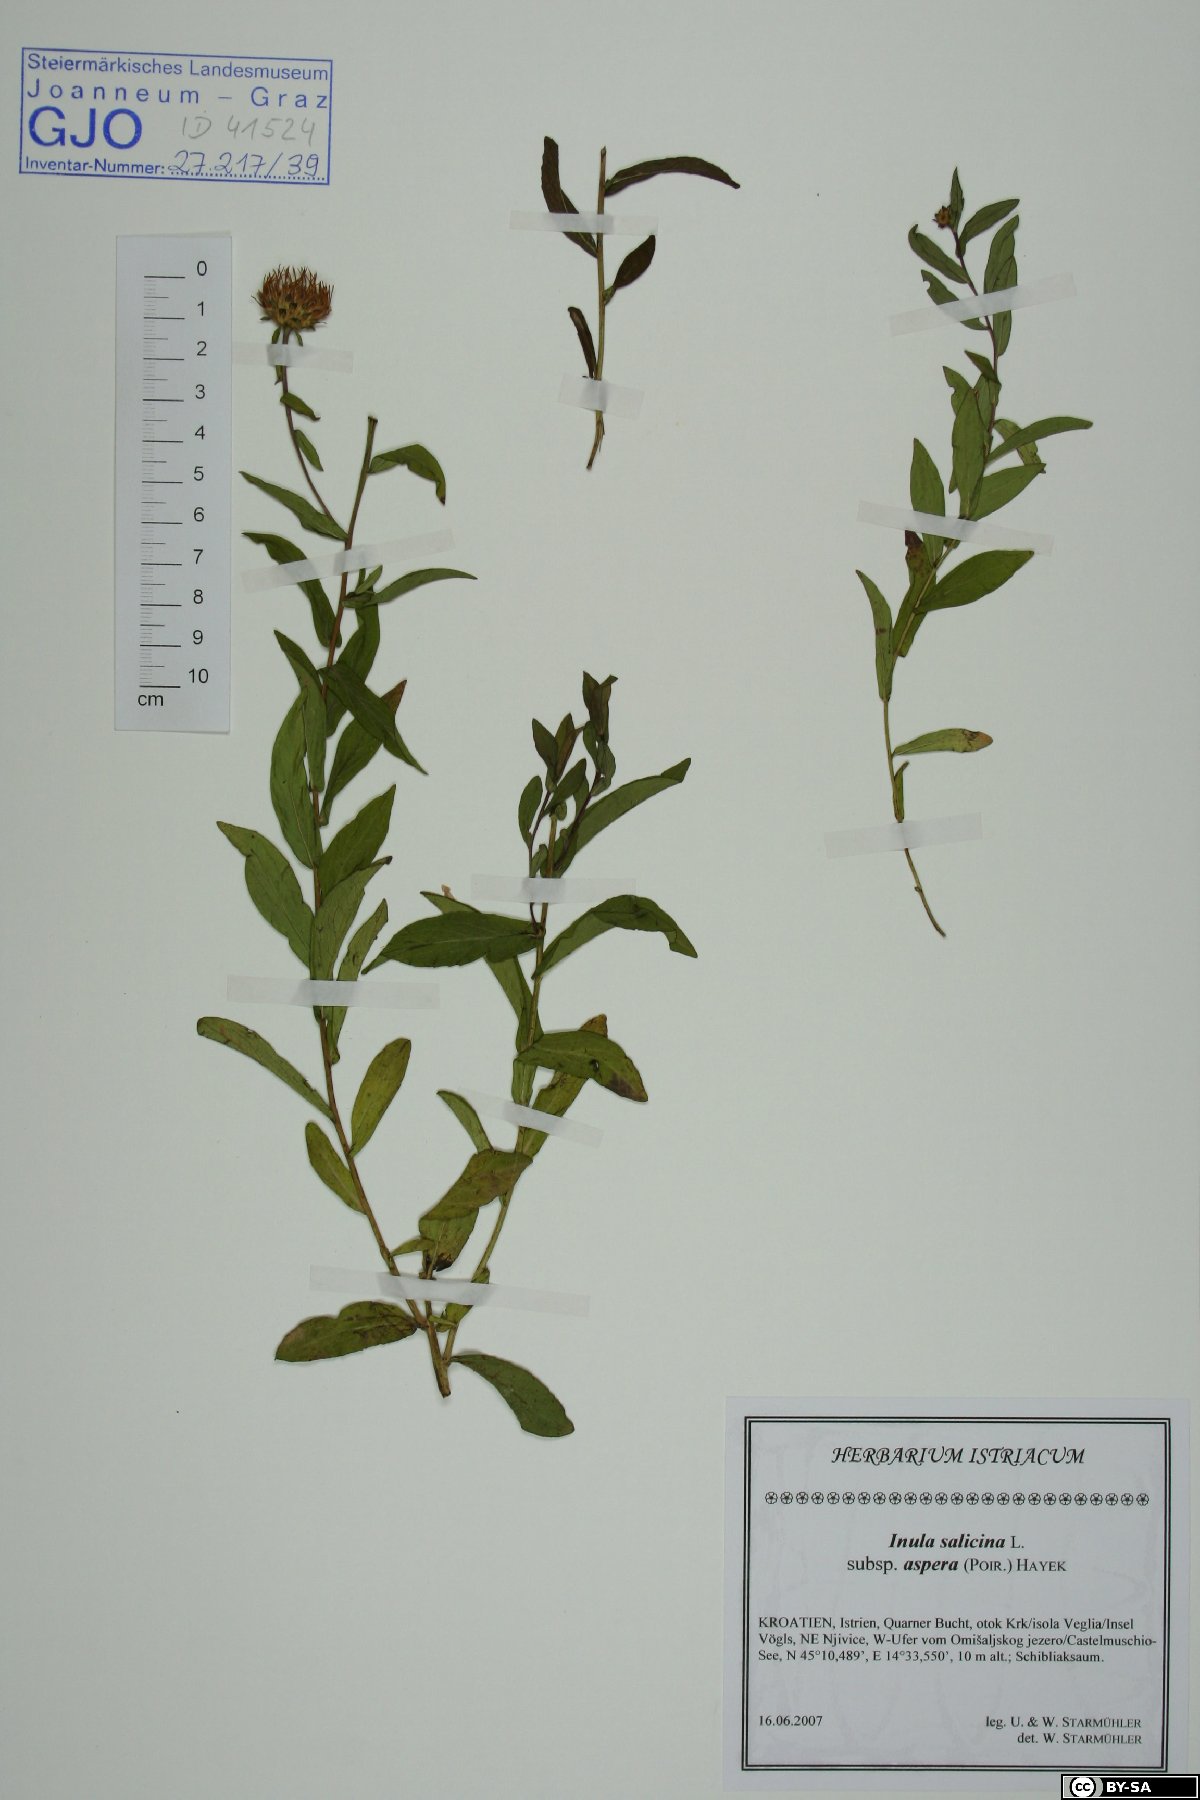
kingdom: Plantae
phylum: Tracheophyta
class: Magnoliopsida
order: Asterales
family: Asteraceae
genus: Pentanema
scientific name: Pentanema asperum
